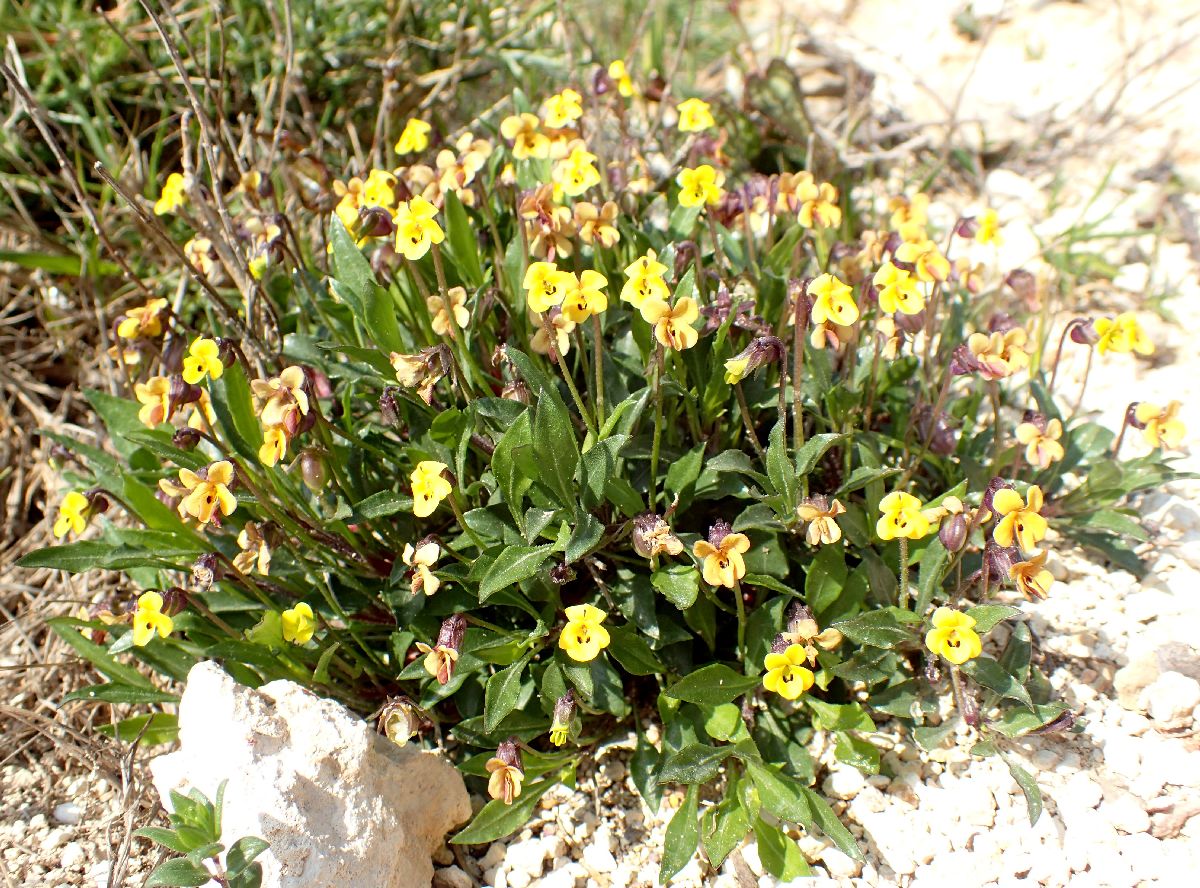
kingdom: Plantae
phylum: Tracheophyta
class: Magnoliopsida
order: Malpighiales
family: Violaceae
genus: Viola
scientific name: Viola scorpiuroides
